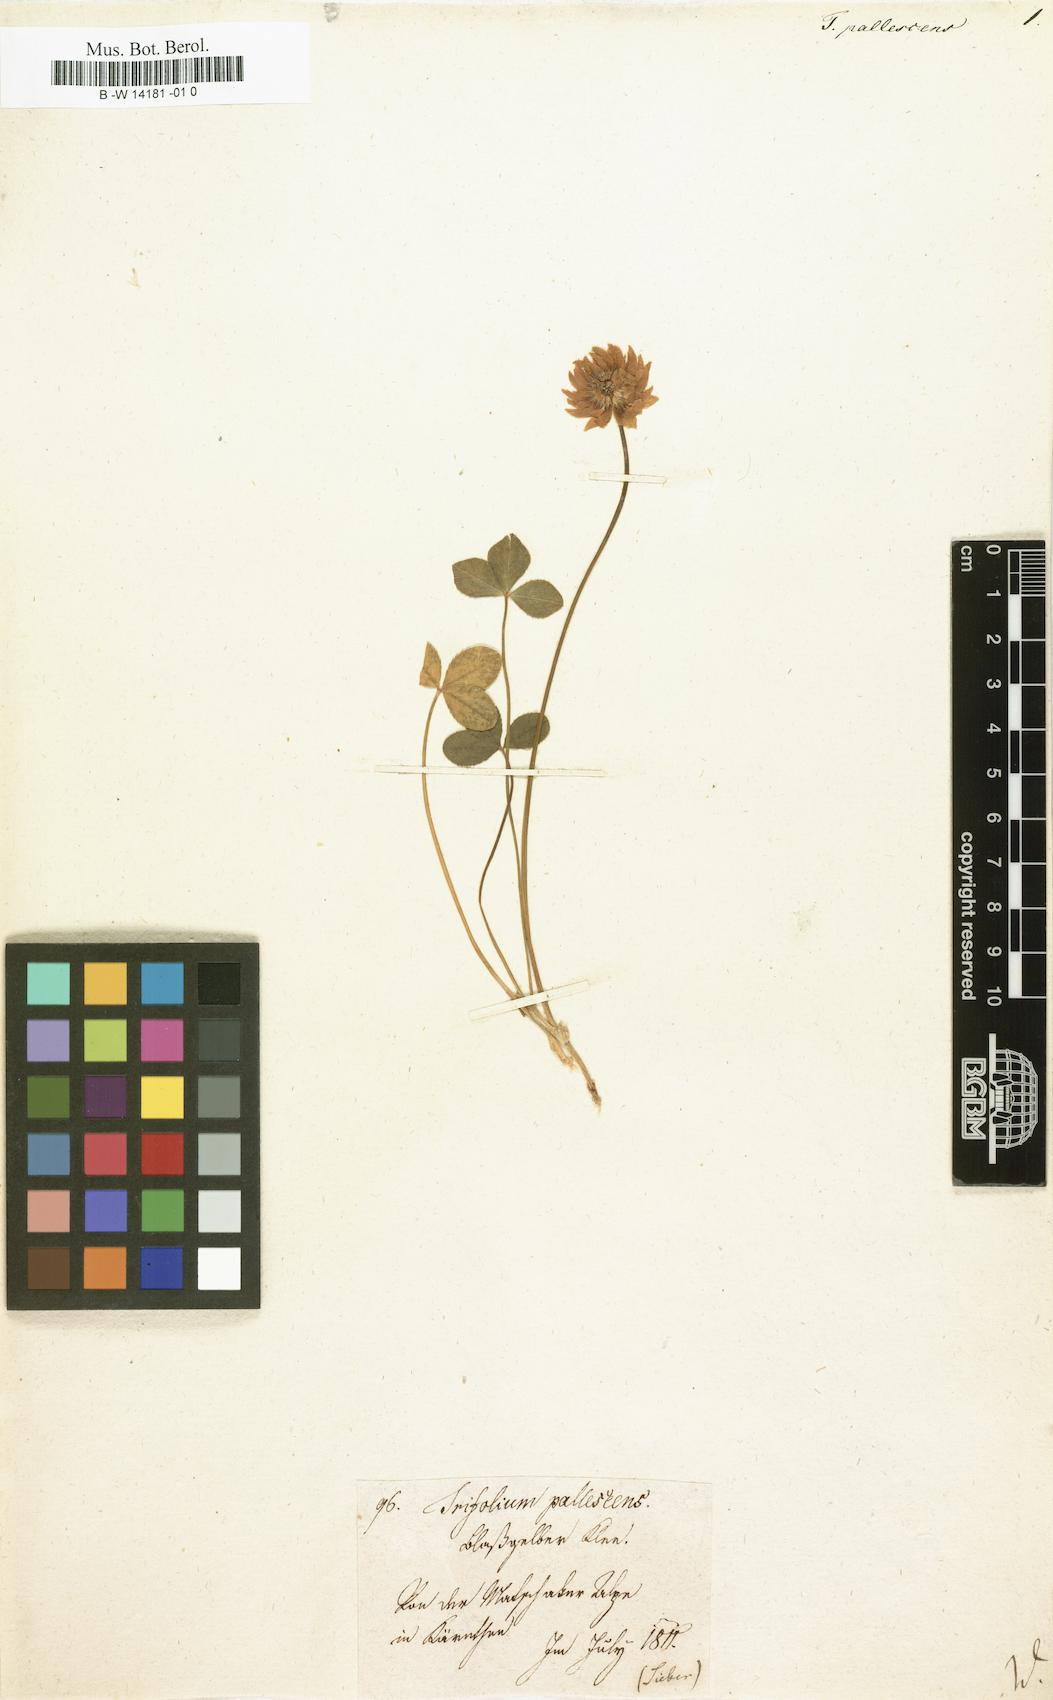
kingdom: Plantae
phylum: Tracheophyta
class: Magnoliopsida
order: Fabales
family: Fabaceae
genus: Trifolium
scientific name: Trifolium pallescens
